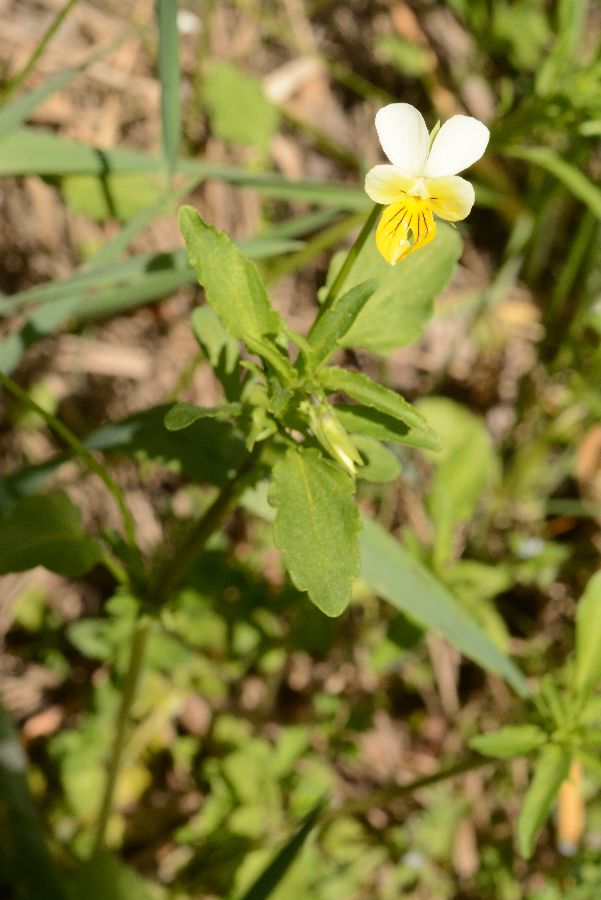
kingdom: Plantae
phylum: Tracheophyta
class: Magnoliopsida
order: Malpighiales
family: Violaceae
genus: Viola
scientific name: Viola
